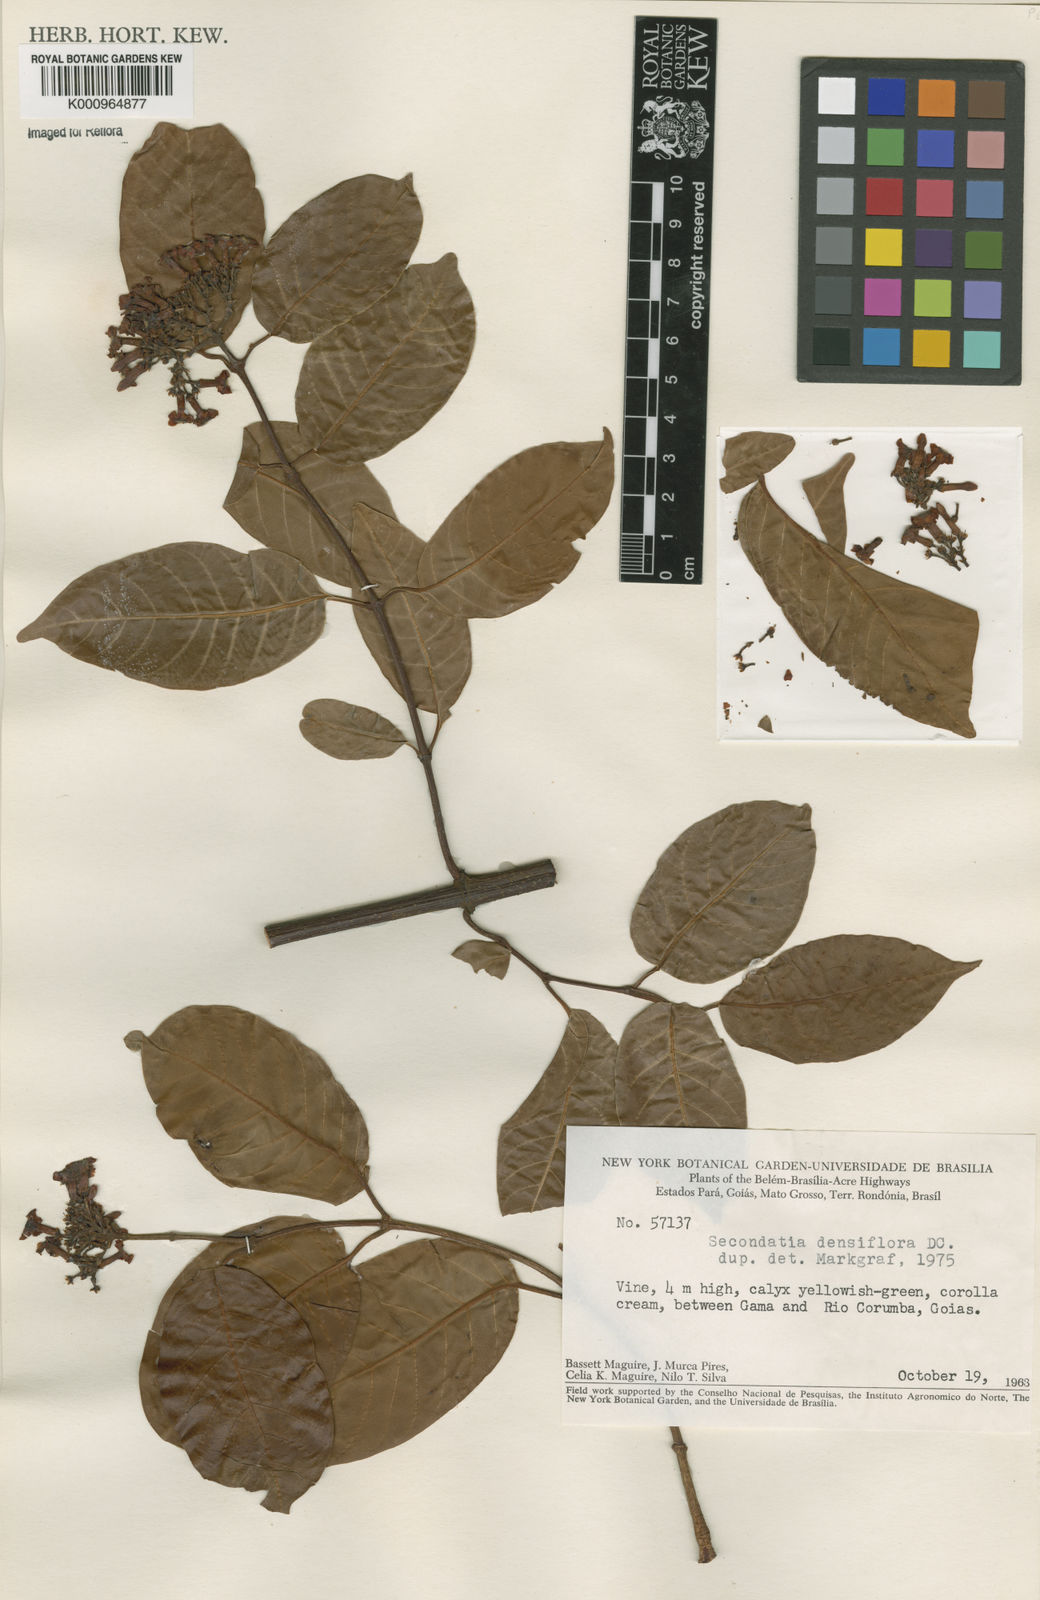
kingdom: Plantae
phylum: Tracheophyta
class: Magnoliopsida
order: Gentianales
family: Apocynaceae
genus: Secondatia
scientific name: Secondatia densiflora
